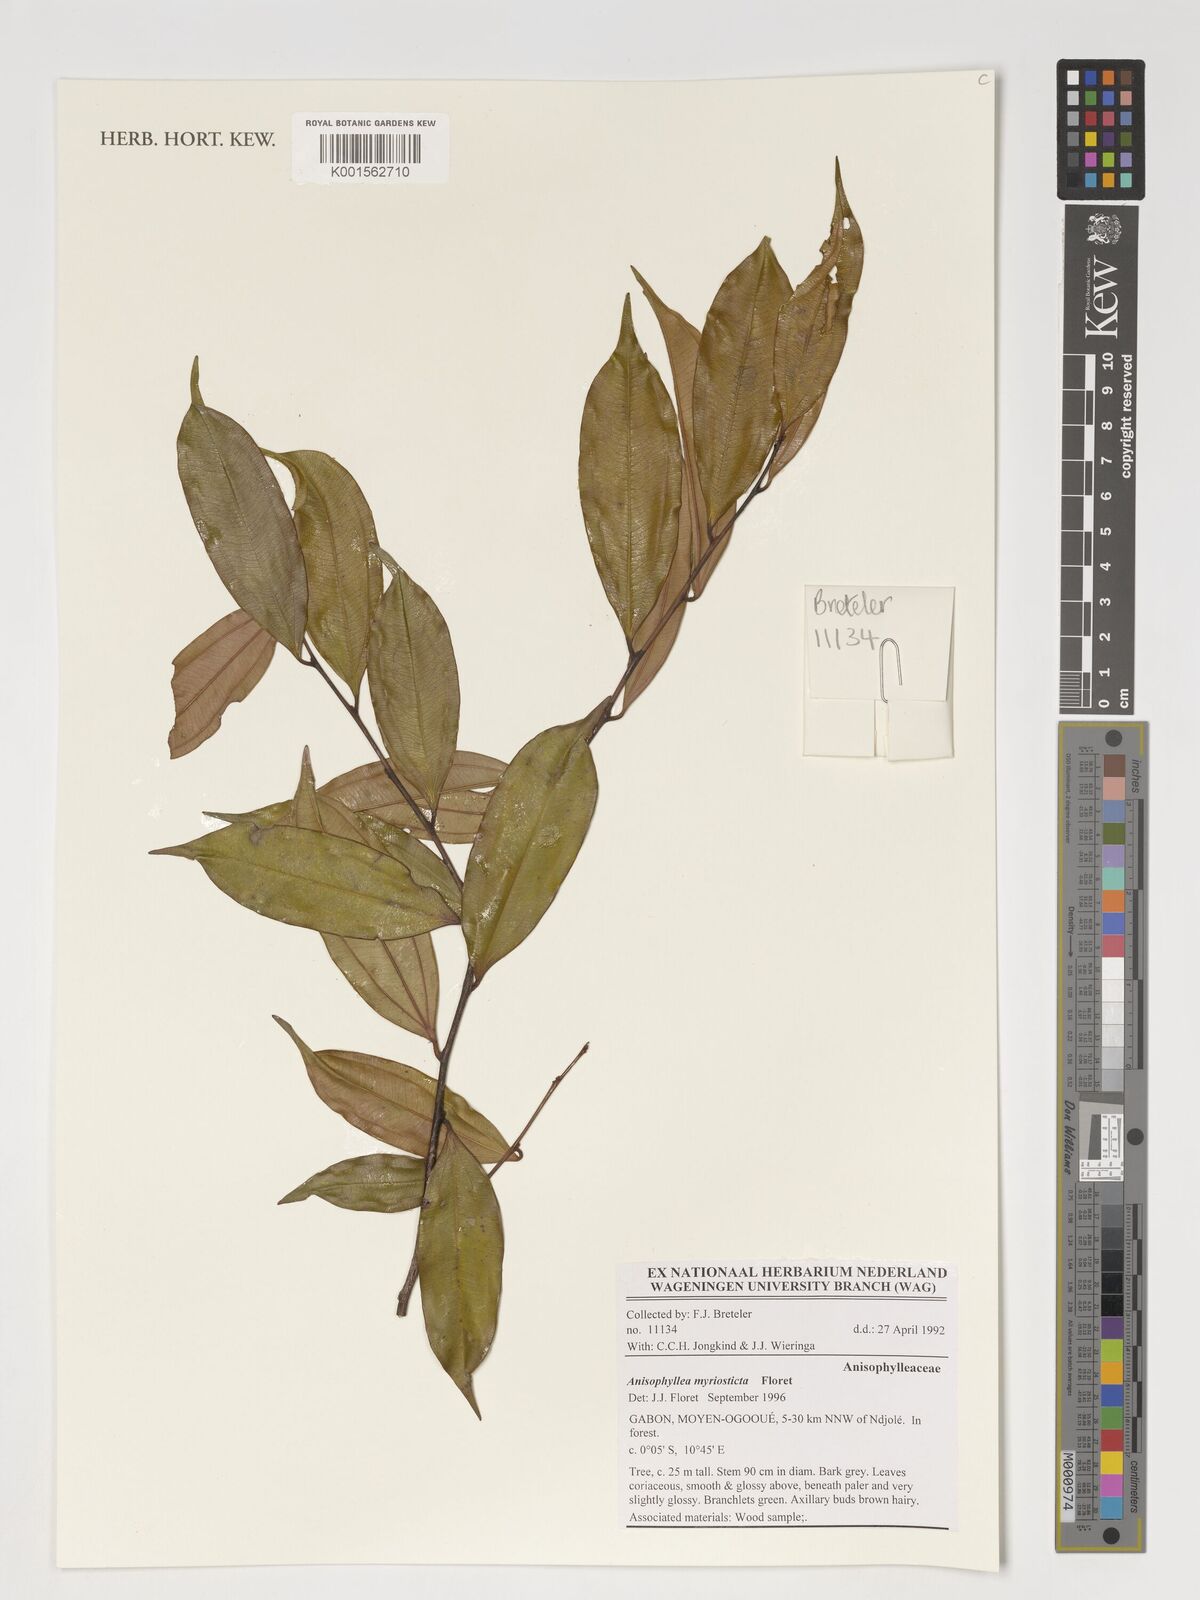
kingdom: Plantae
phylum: Tracheophyta
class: Magnoliopsida
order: Cucurbitales
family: Anisophylleaceae
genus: Anisophyllea
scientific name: Anisophyllea myriosticta
